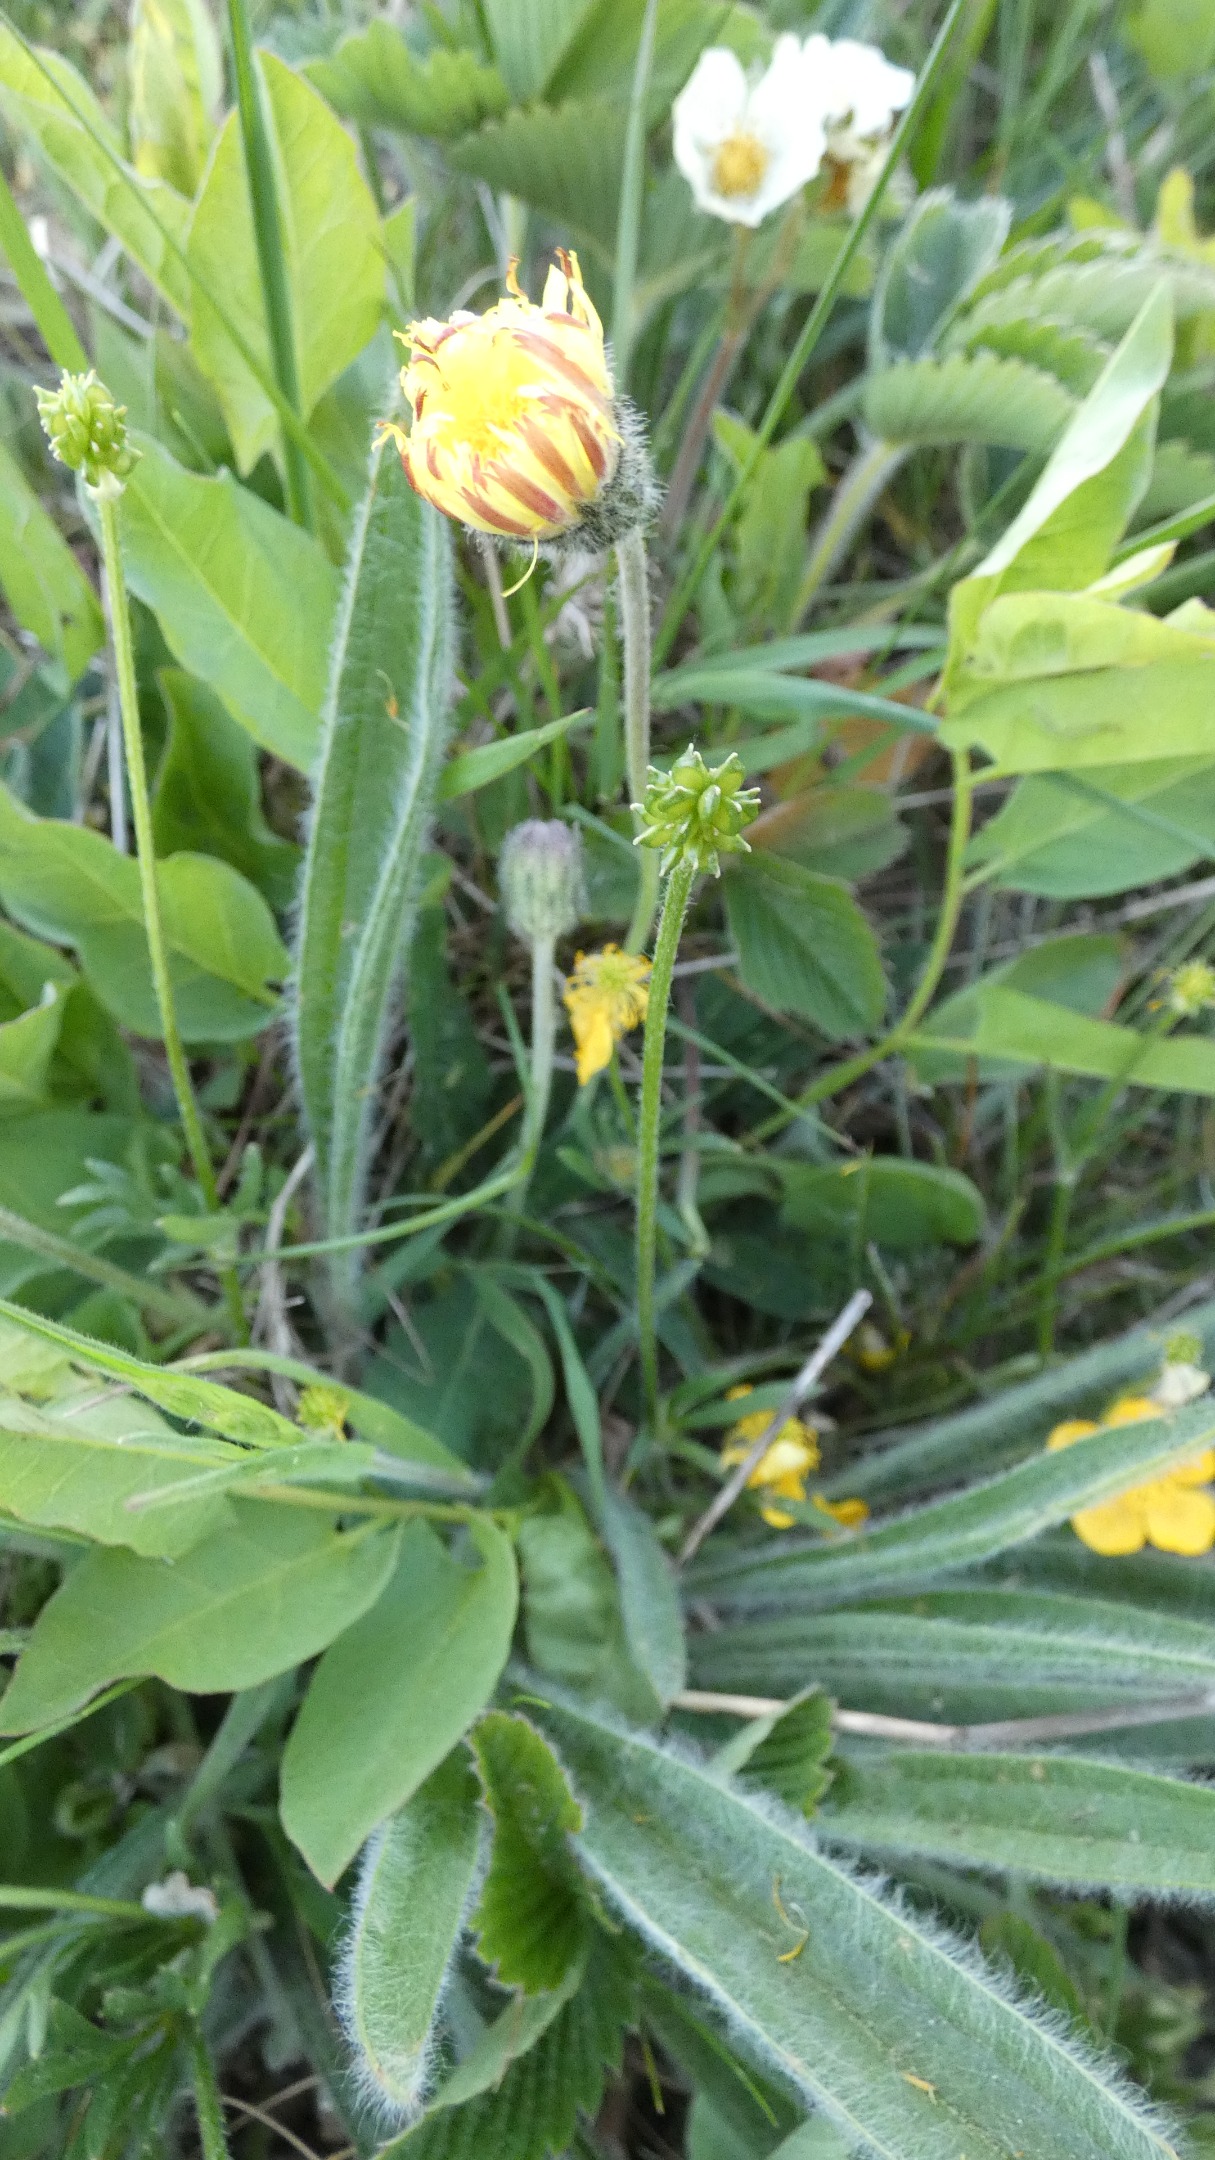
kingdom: Plantae
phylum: Tracheophyta
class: Magnoliopsida
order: Asterales
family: Asteraceae
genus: Pilosella
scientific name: Pilosella officinarum
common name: Håret høgeurt
